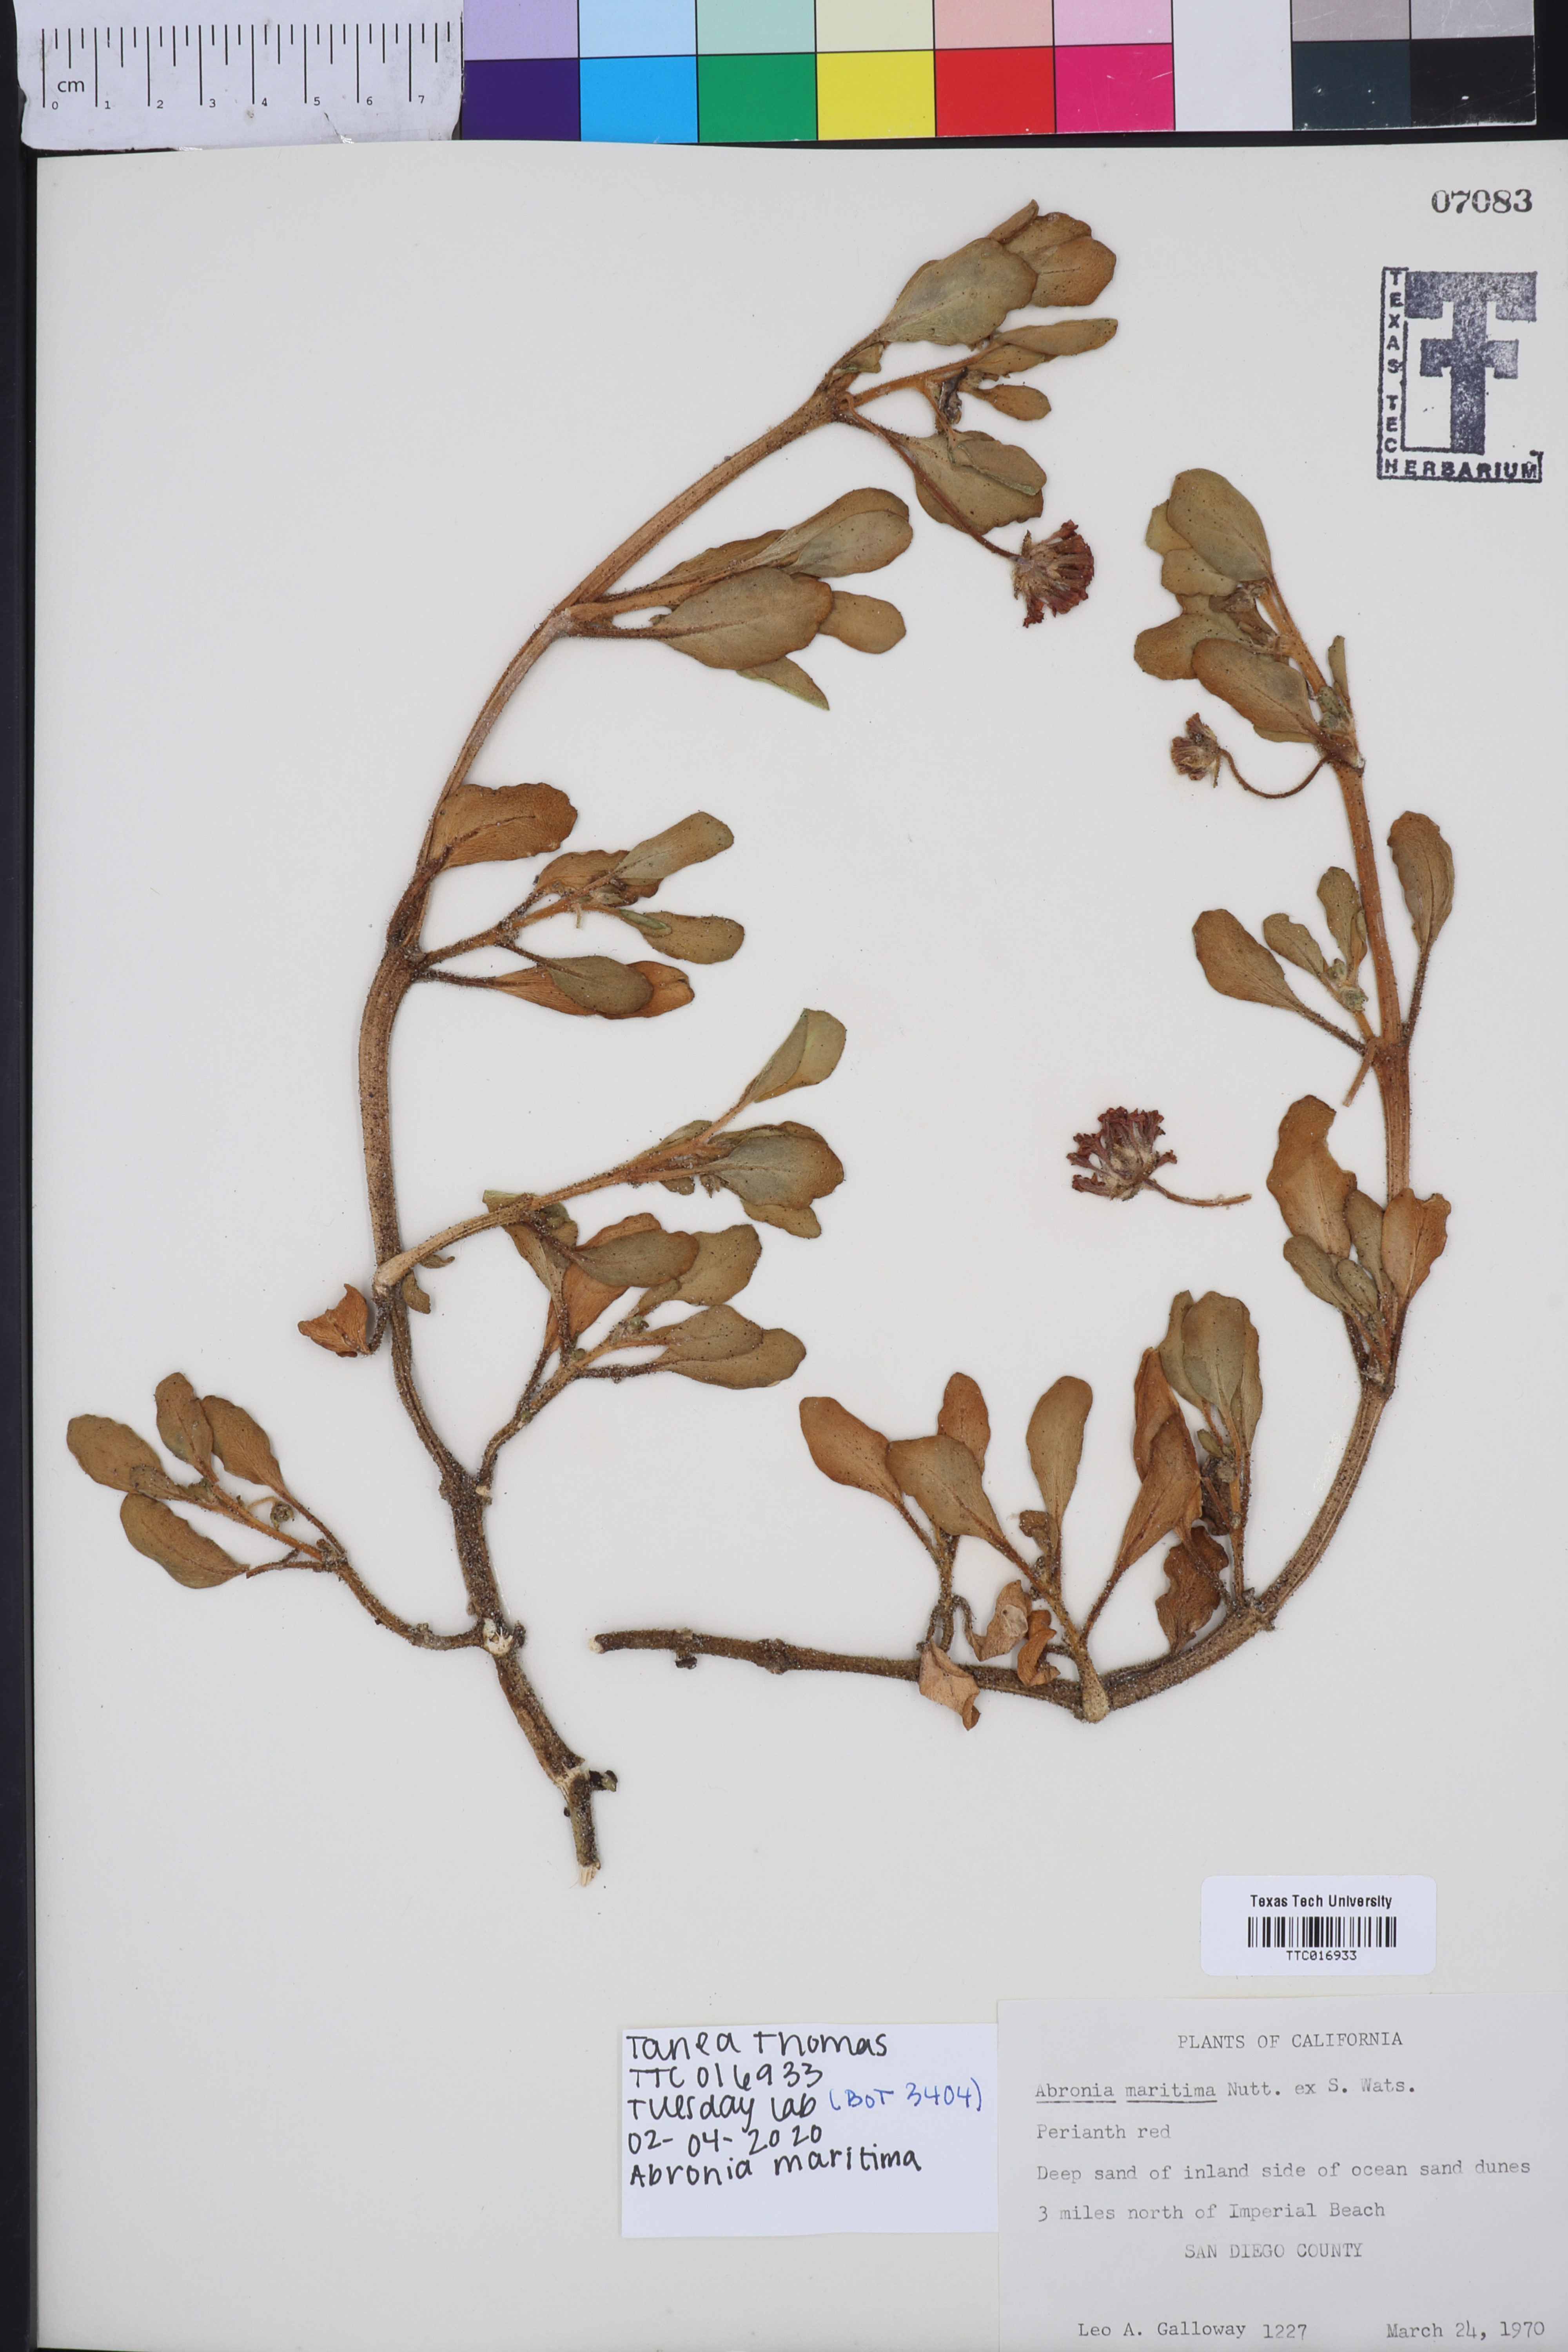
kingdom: Plantae
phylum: Tracheophyta
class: Magnoliopsida
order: Caryophyllales
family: Nyctaginaceae
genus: Abronia
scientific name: Abronia maritima
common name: Red sand-verbena
